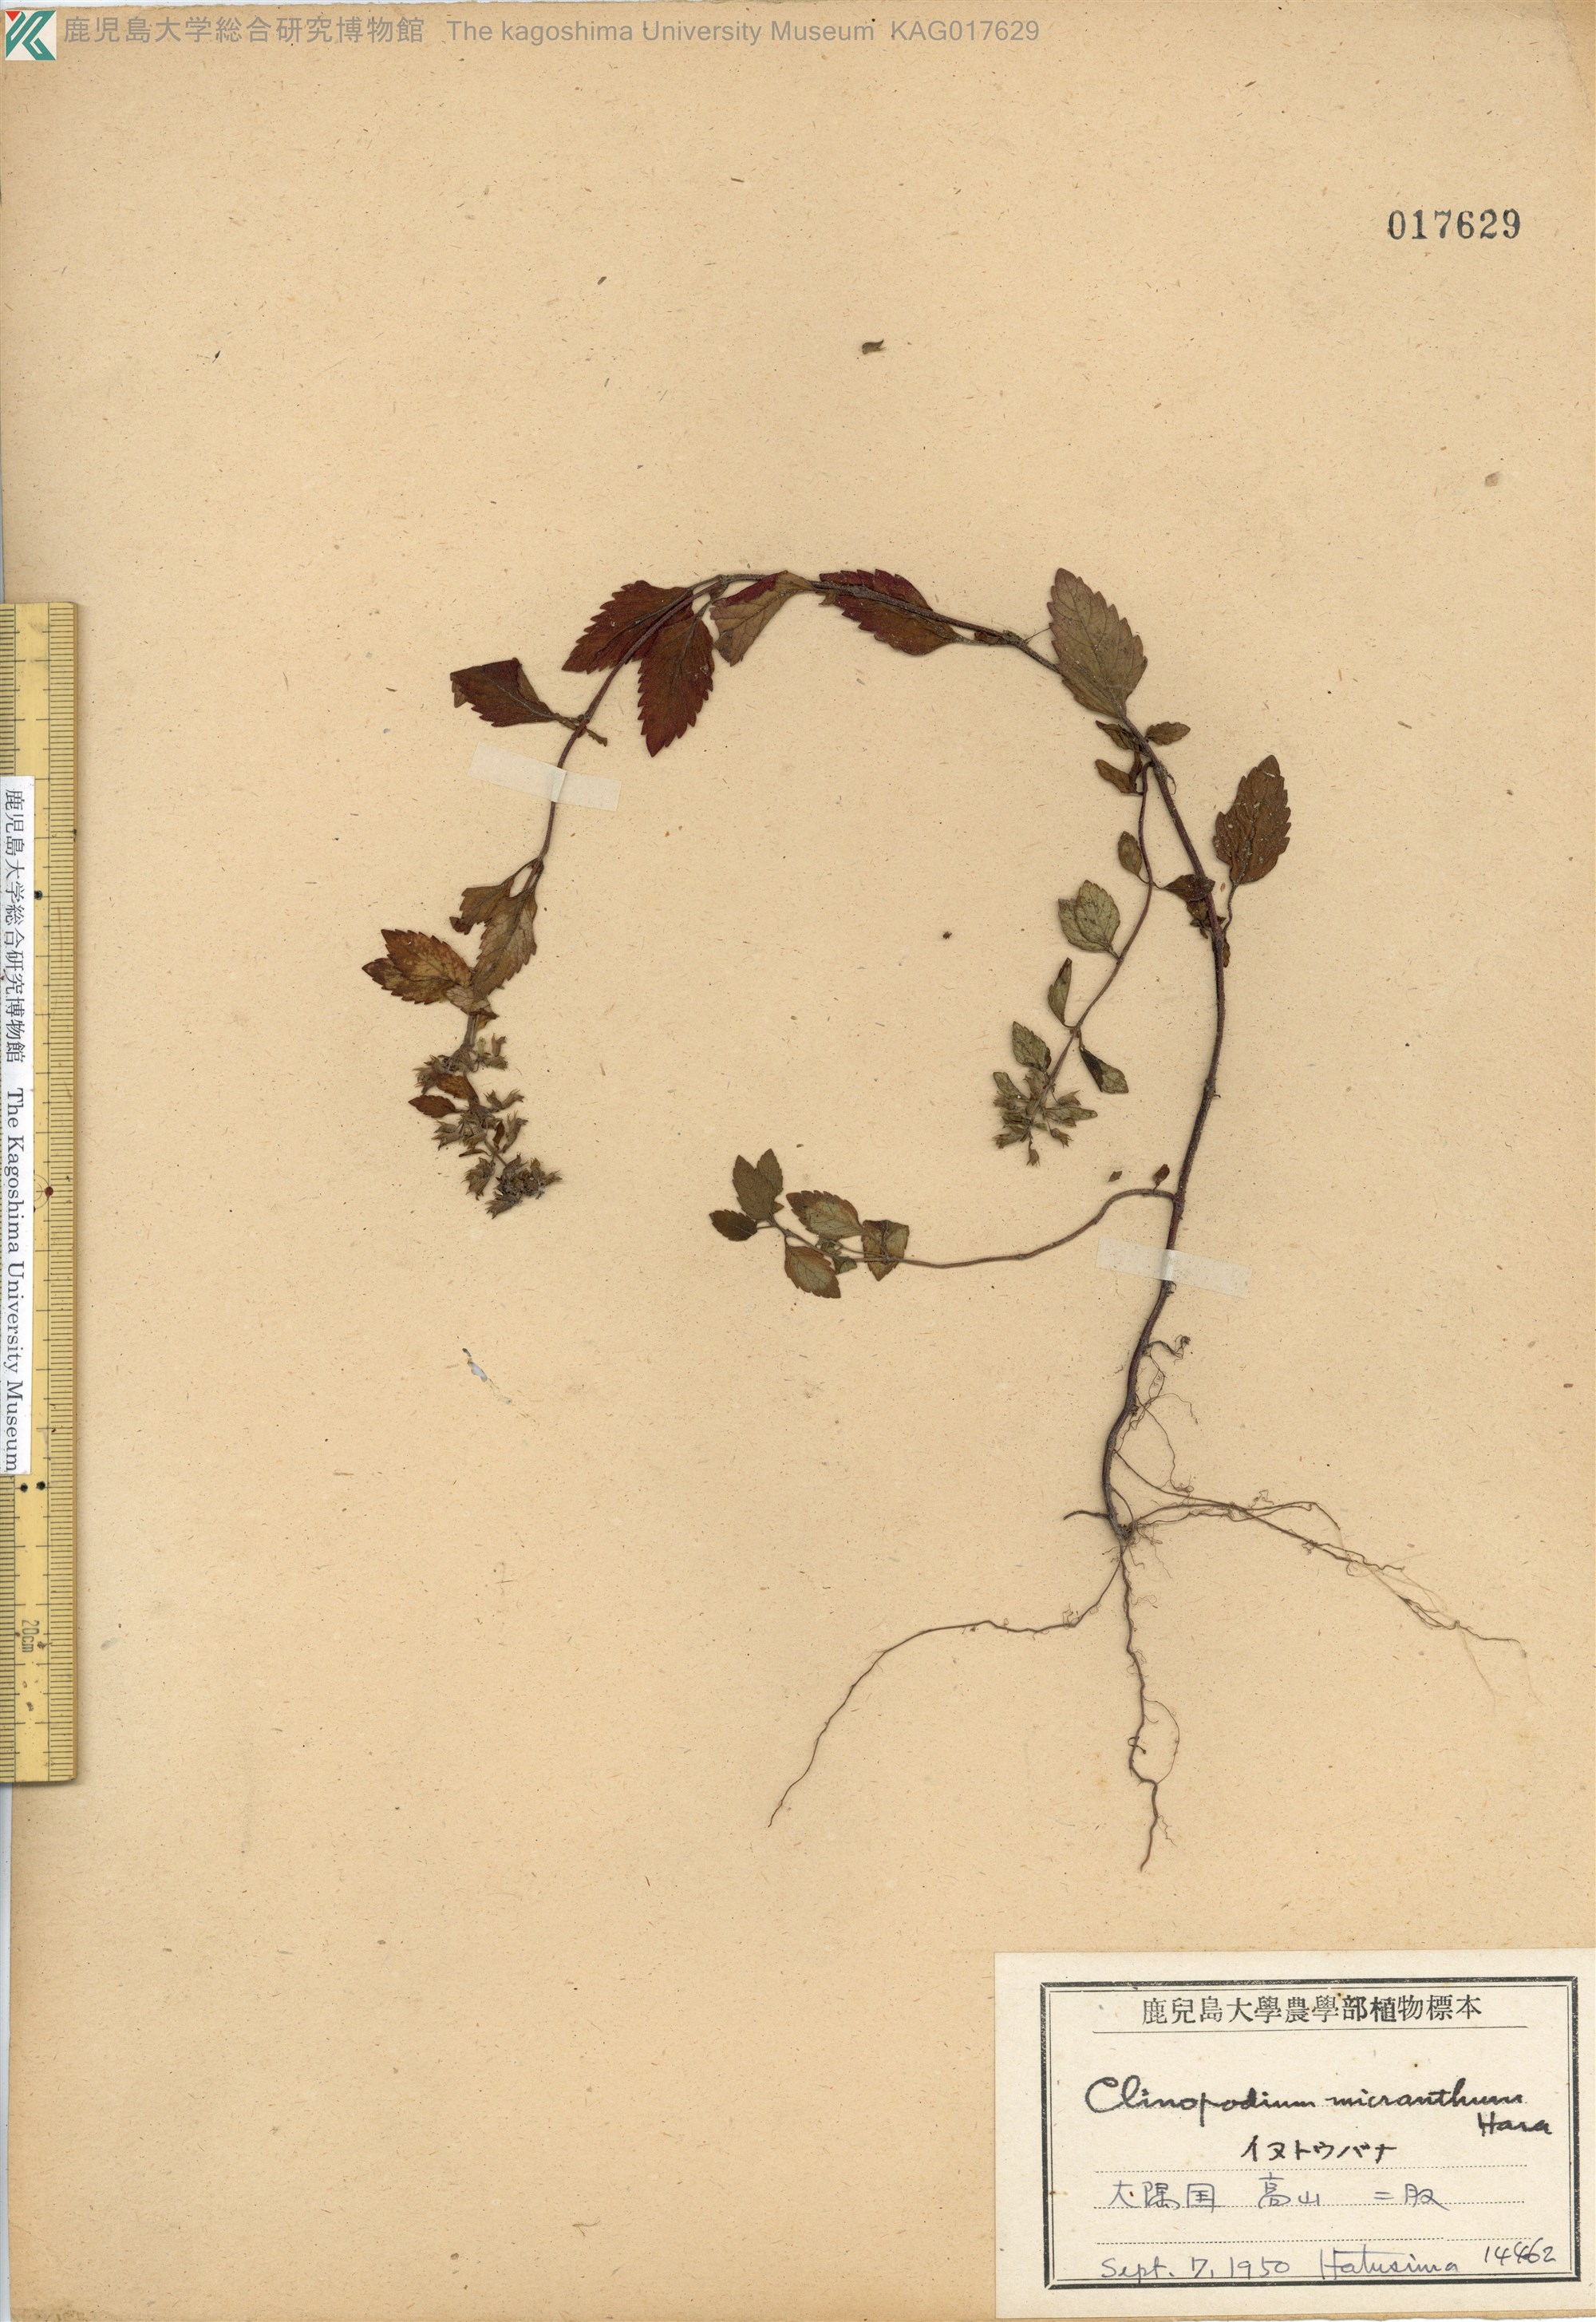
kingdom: Plantae
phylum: Tracheophyta
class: Magnoliopsida
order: Lamiales
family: Lamiaceae
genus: Clinopodium
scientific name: Clinopodium micranthum
